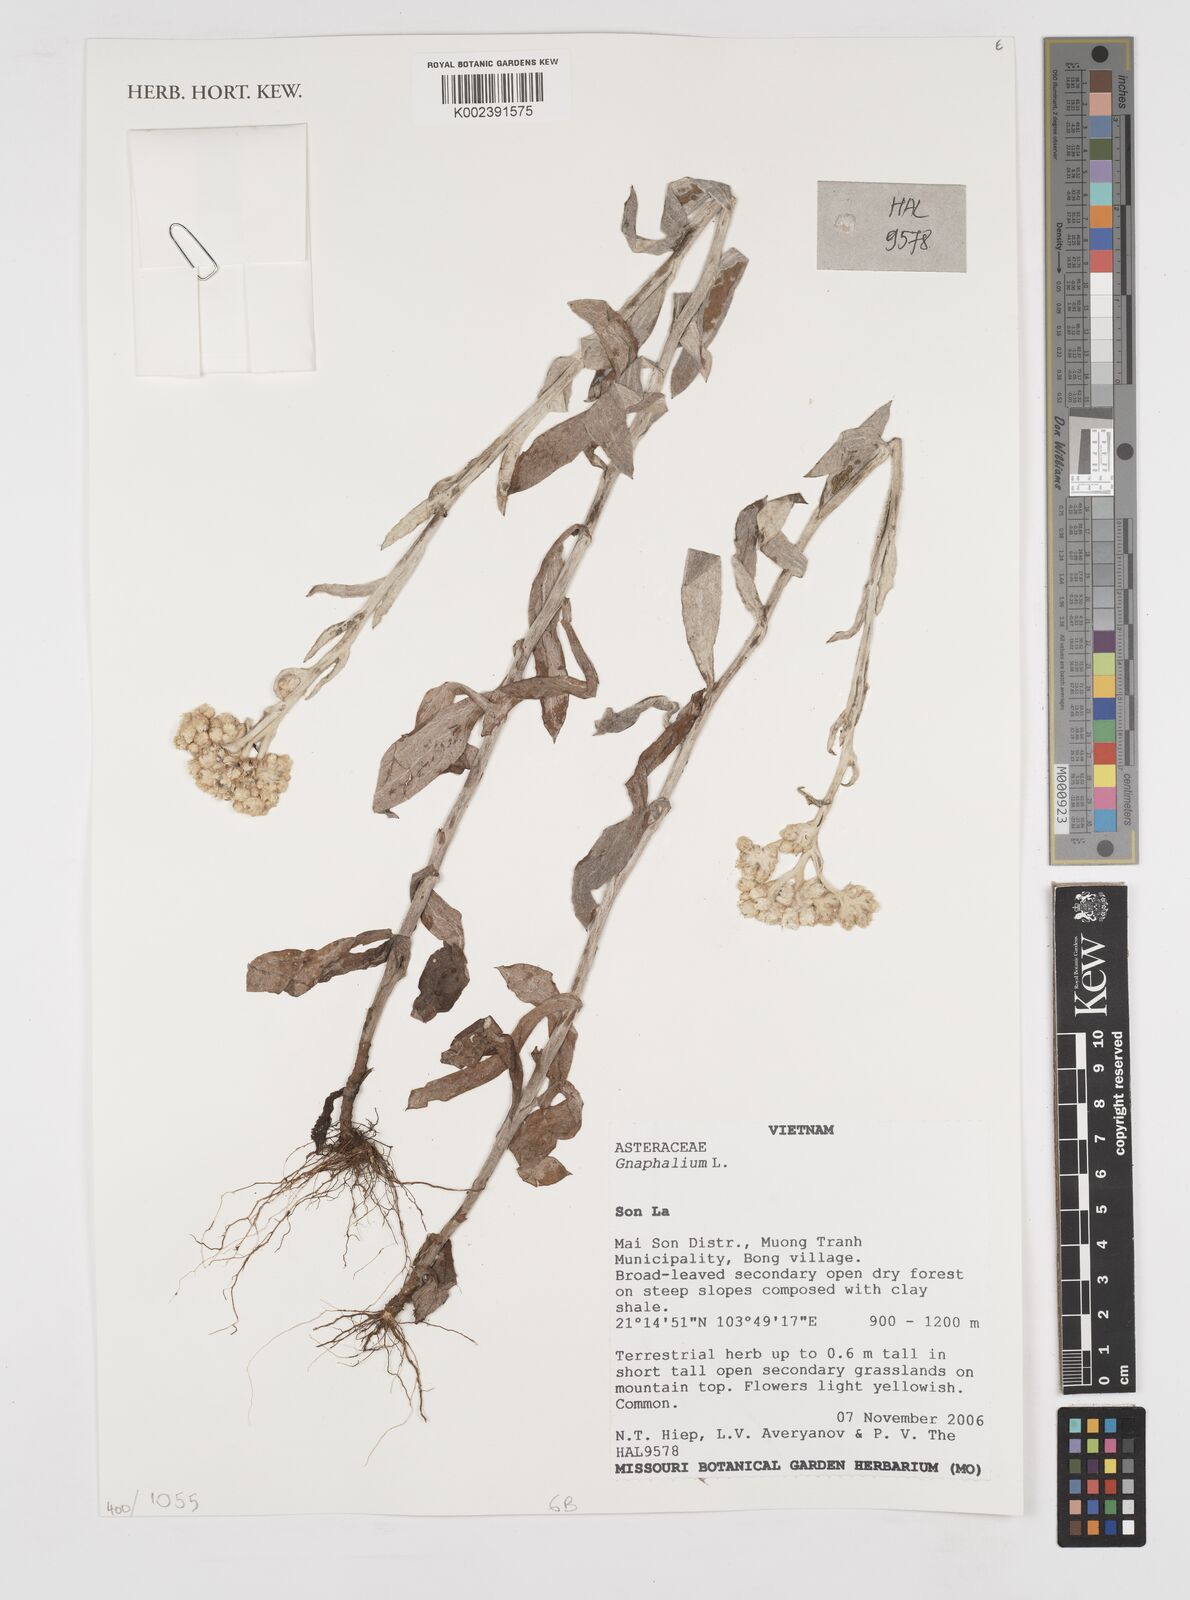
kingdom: Plantae
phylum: Tracheophyta
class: Magnoliopsida
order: Asterales
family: Asteraceae
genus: Gnaphalium
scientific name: Gnaphalium
